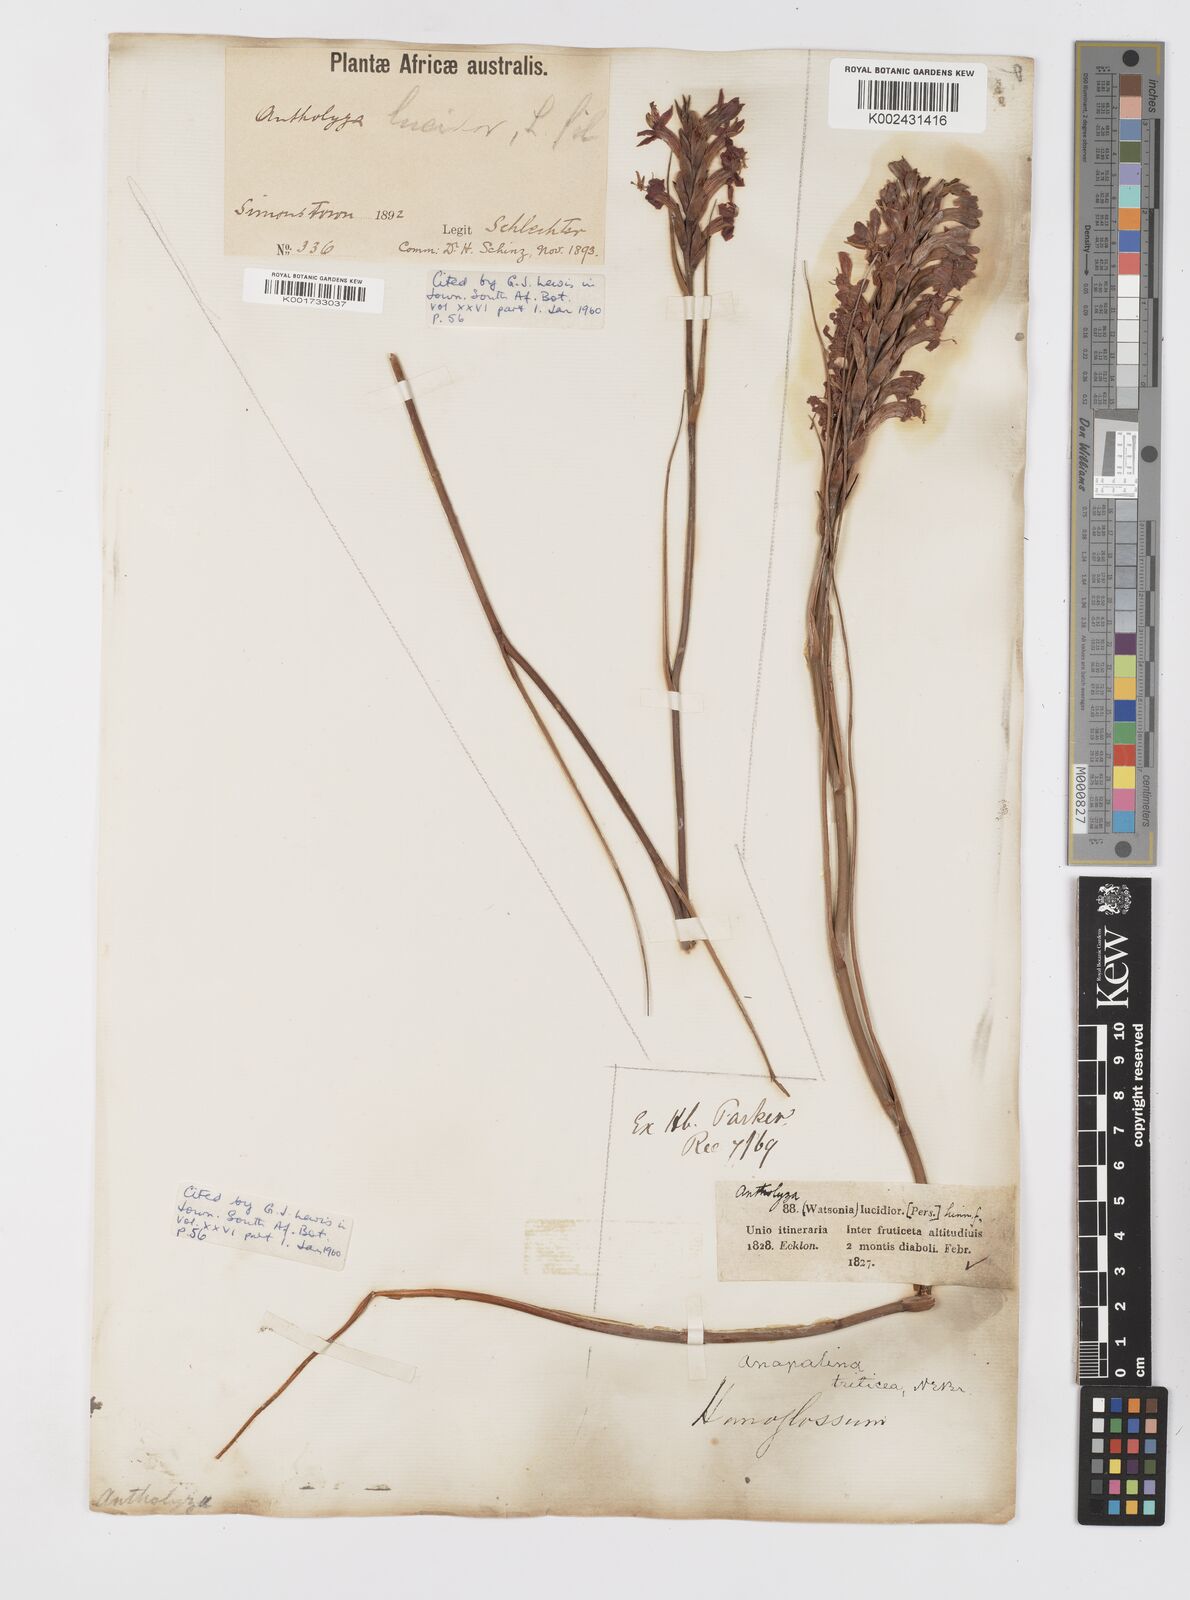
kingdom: Plantae
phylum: Tracheophyta
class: Liliopsida
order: Asparagales
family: Iridaceae
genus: Tritoniopsis
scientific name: Tritoniopsis triticea
